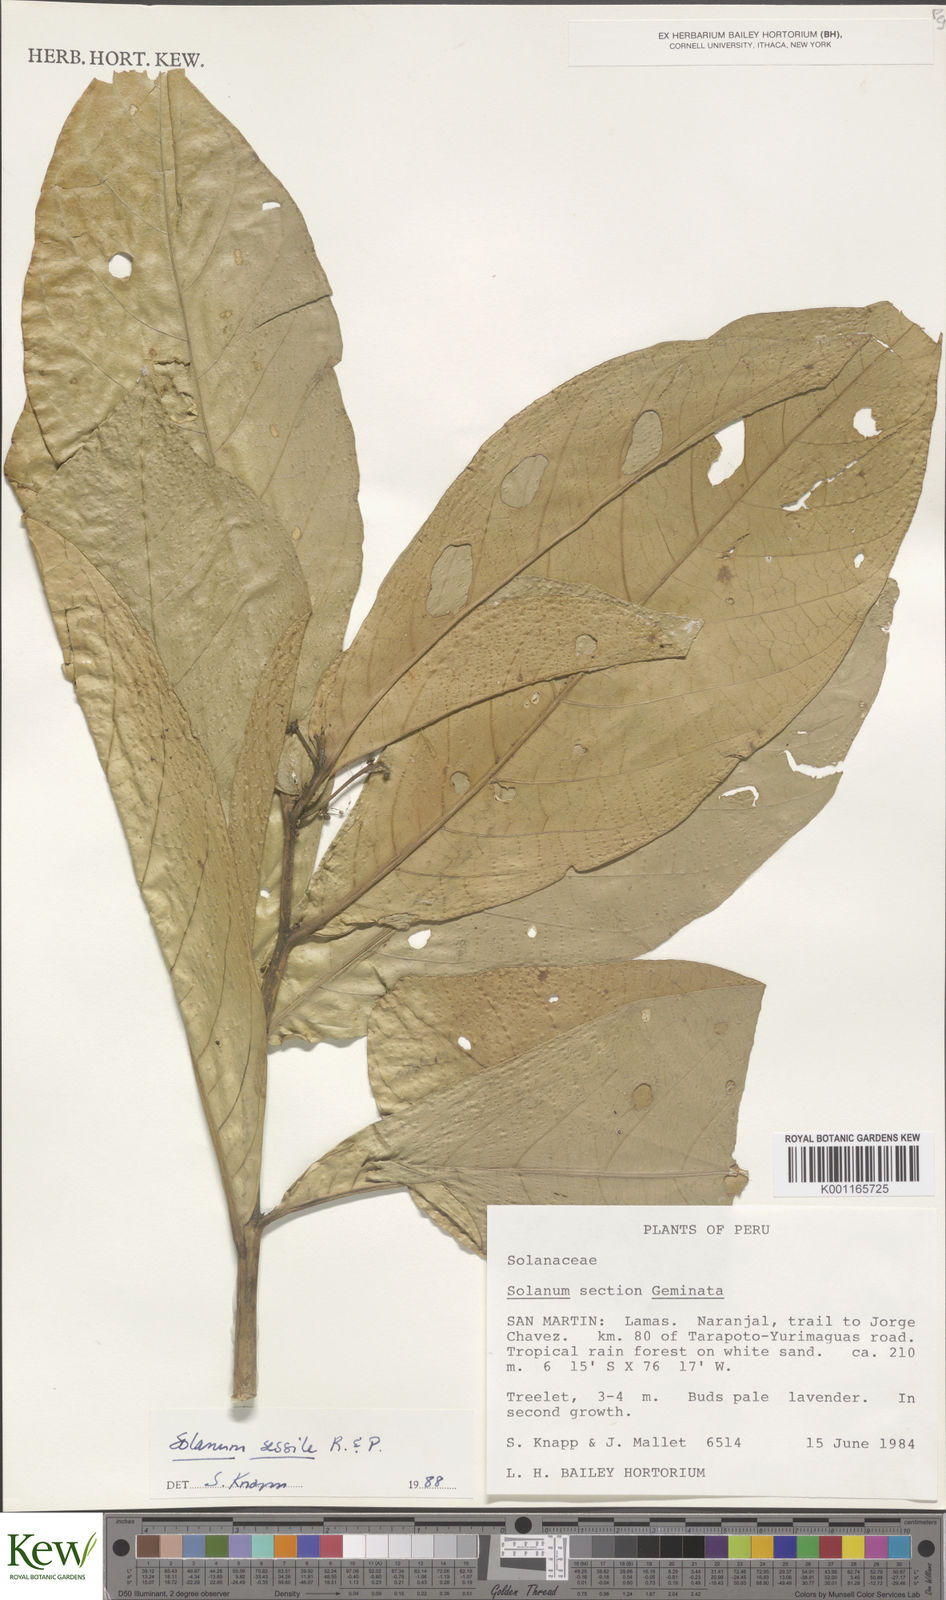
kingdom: Plantae
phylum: Tracheophyta
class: Magnoliopsida
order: Solanales
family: Solanaceae
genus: Solanum
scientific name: Solanum sessile
